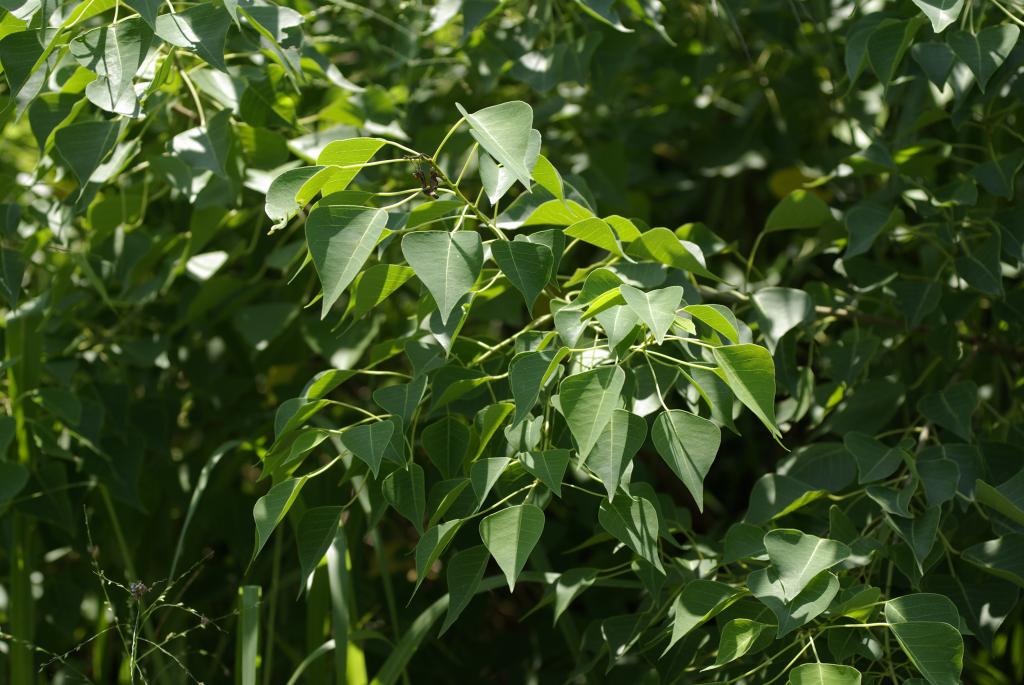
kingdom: Plantae
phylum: Tracheophyta
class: Magnoliopsida
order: Malpighiales
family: Euphorbiaceae
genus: Triadica
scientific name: Triadica sebifera
